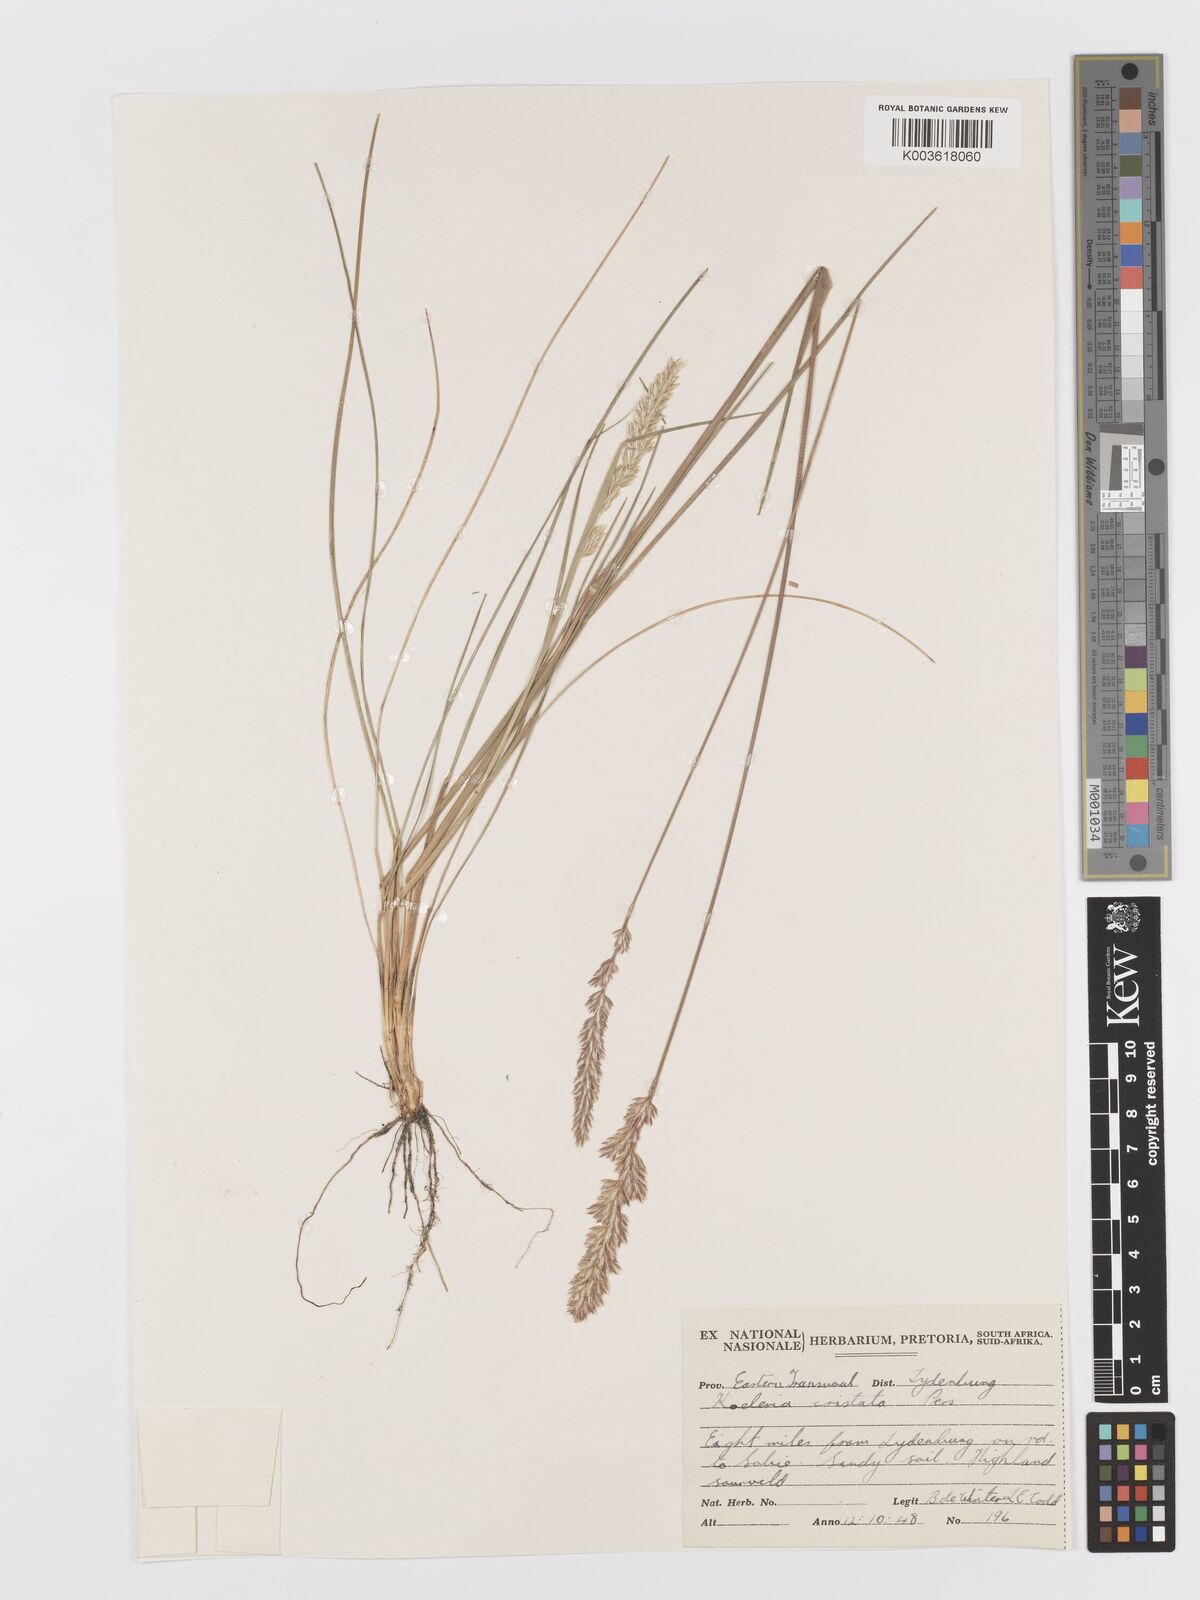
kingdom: Plantae
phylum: Tracheophyta
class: Liliopsida
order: Poales
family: Poaceae
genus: Koeleria
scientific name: Koeleria capensis
